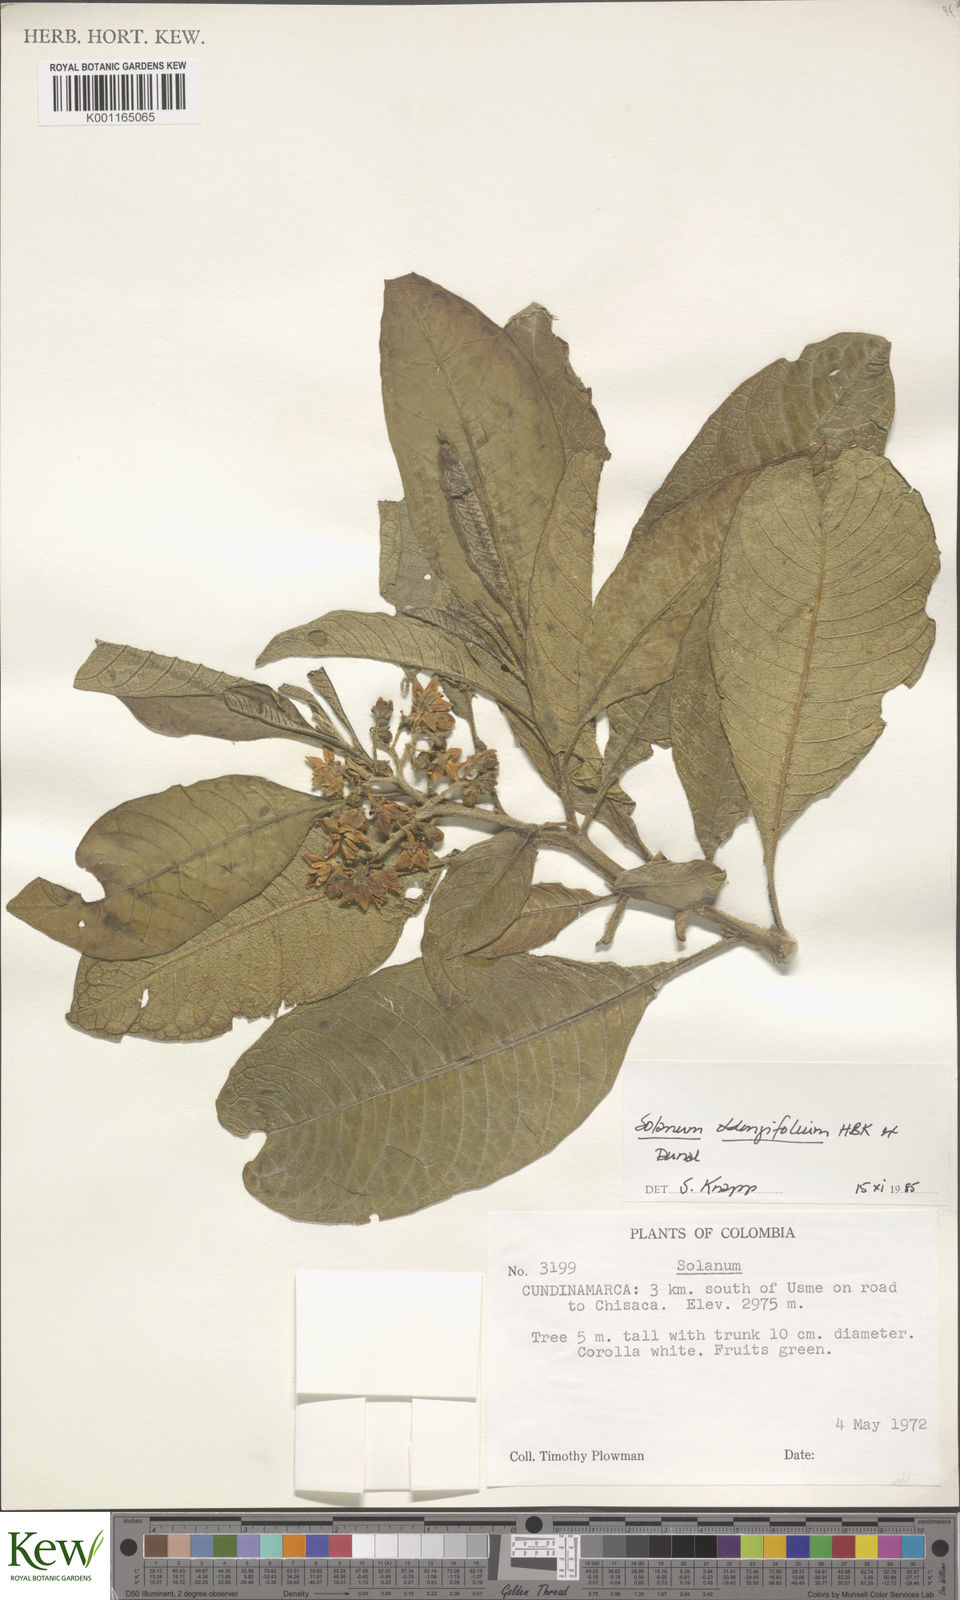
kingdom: Plantae
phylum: Tracheophyta
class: Magnoliopsida
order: Solanales
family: Solanaceae
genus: Solanum
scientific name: Solanum oblongifolium
